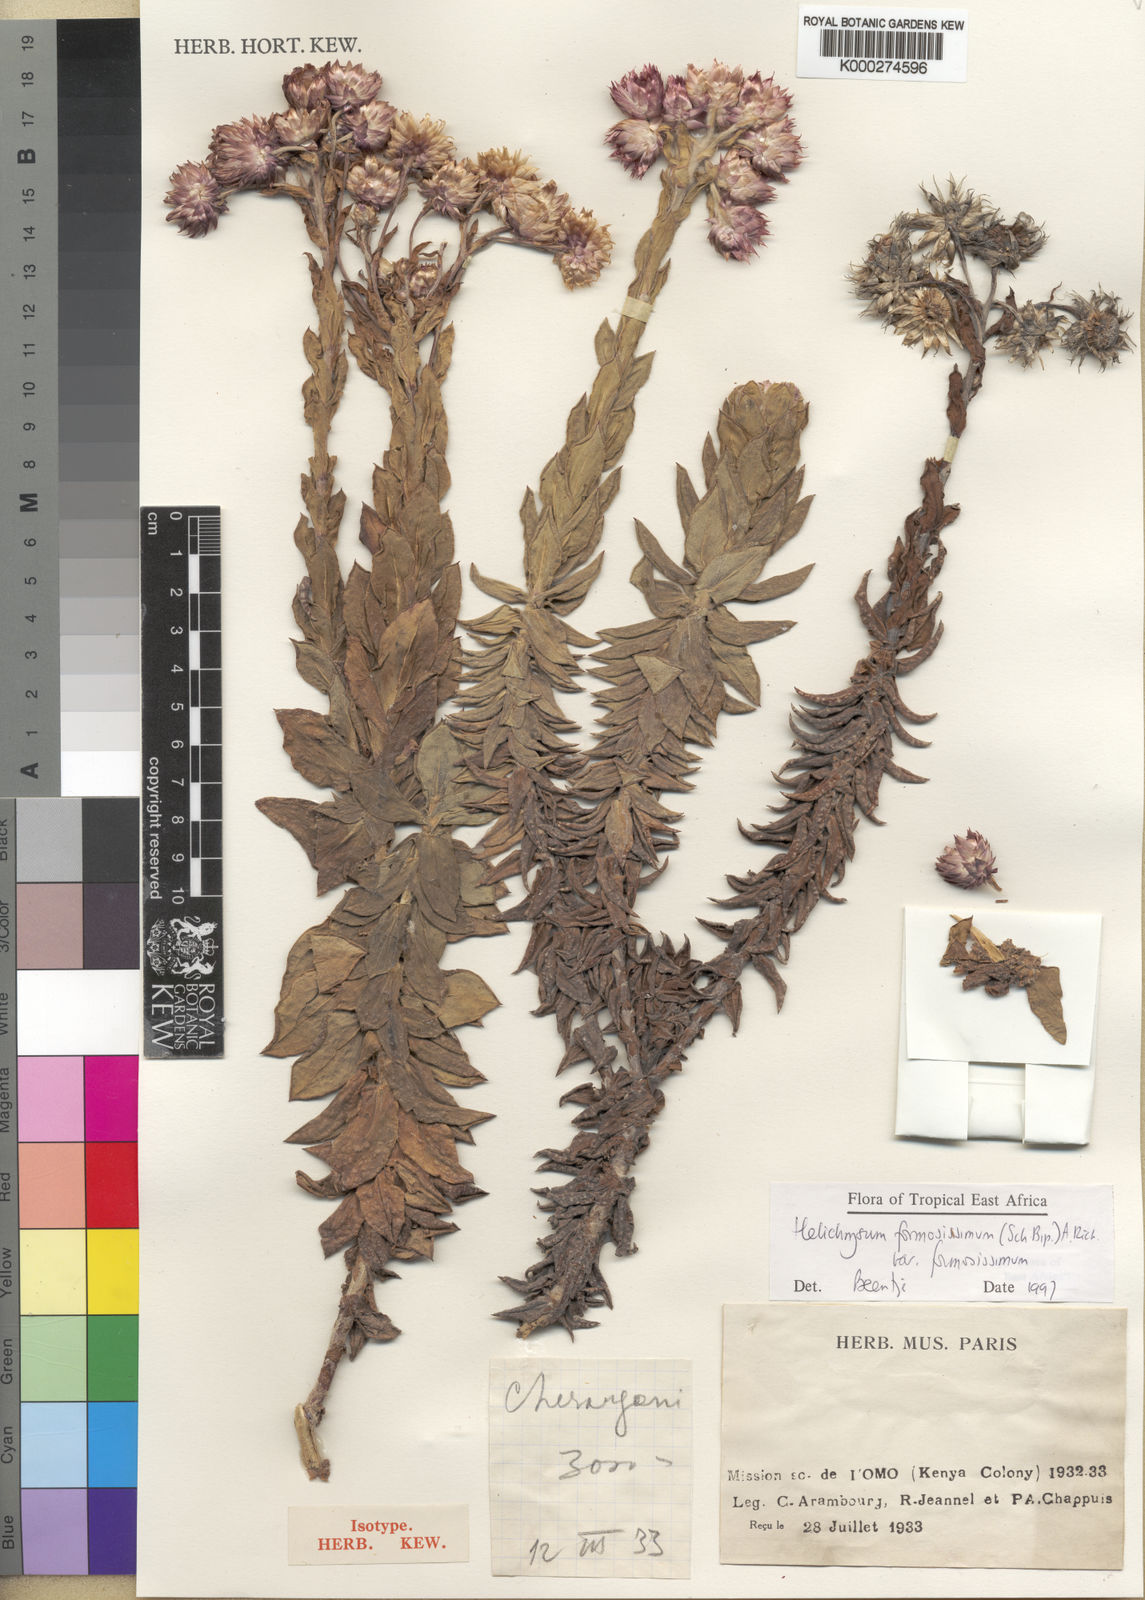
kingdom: Plantae
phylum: Tracheophyta
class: Magnoliopsida
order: Asterales
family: Asteraceae
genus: Helichrysum
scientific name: Helichrysum
